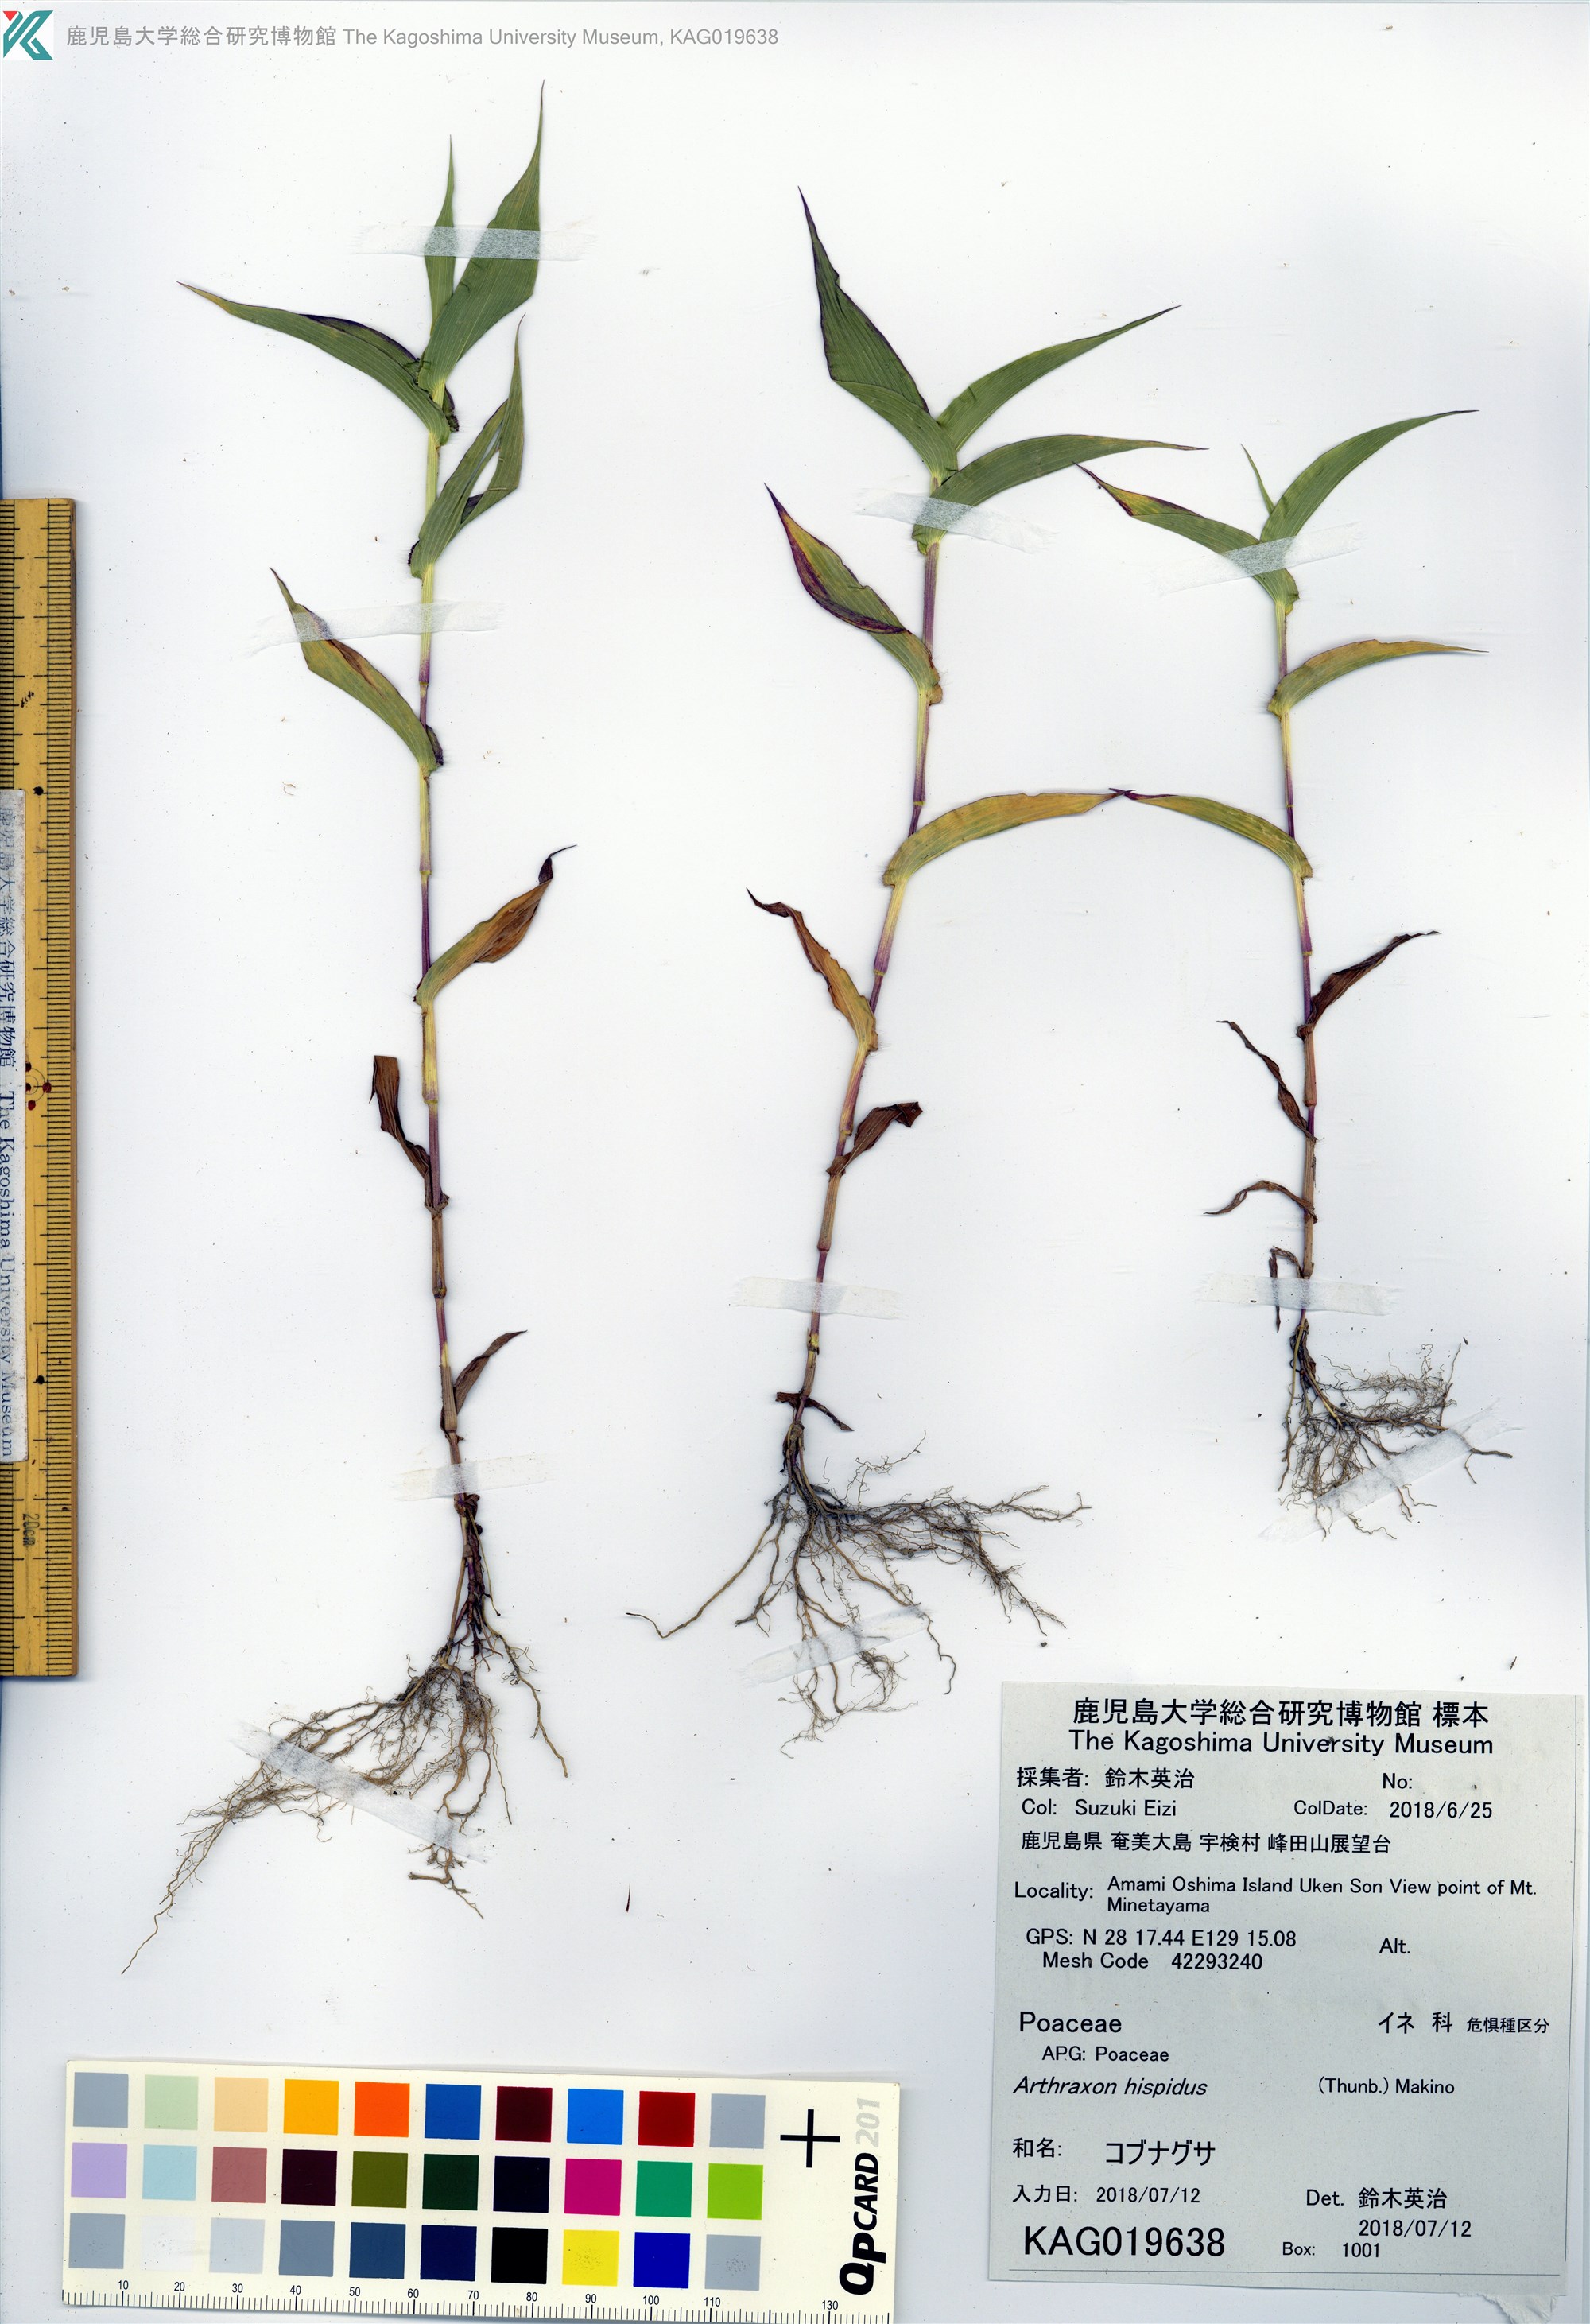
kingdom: Plantae
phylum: Tracheophyta
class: Liliopsida
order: Poales
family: Poaceae
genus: Arthraxon
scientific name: Arthraxon hispidus
